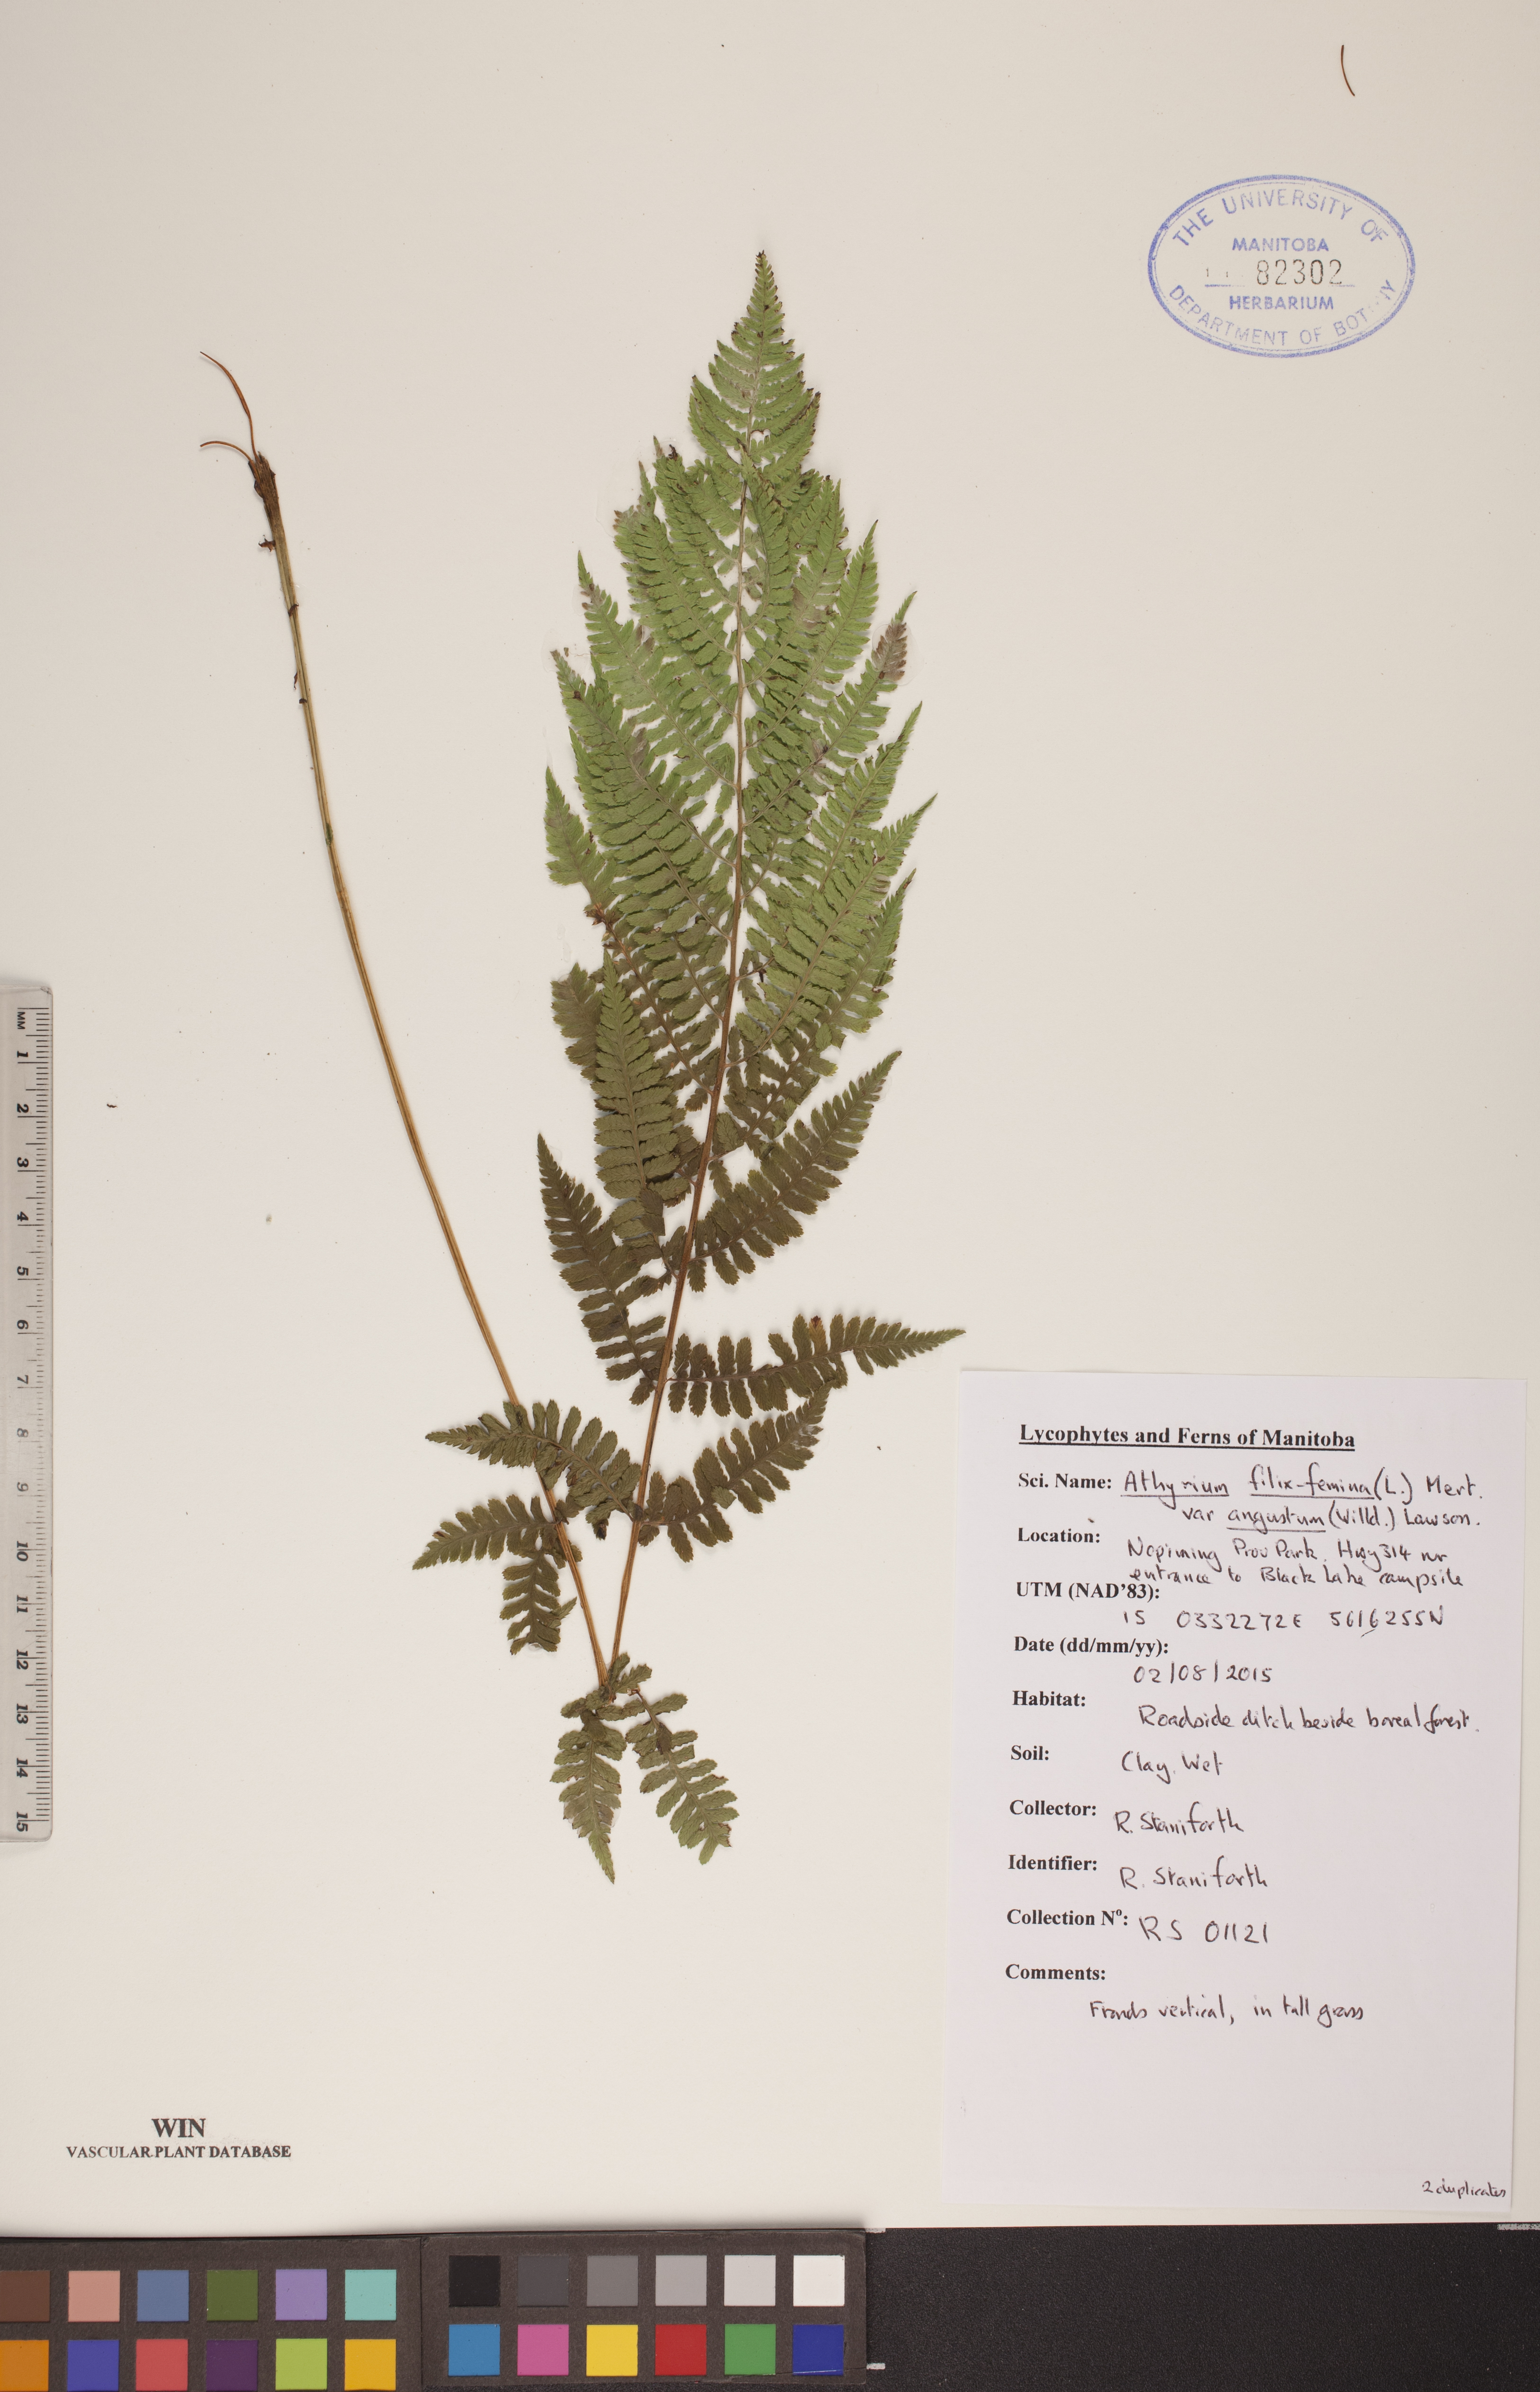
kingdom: Plantae
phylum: Tracheophyta
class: Polypodiopsida
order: Polypodiales
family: Athyriaceae
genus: Athyrium
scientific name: Athyrium angustum
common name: Northern lady fern
